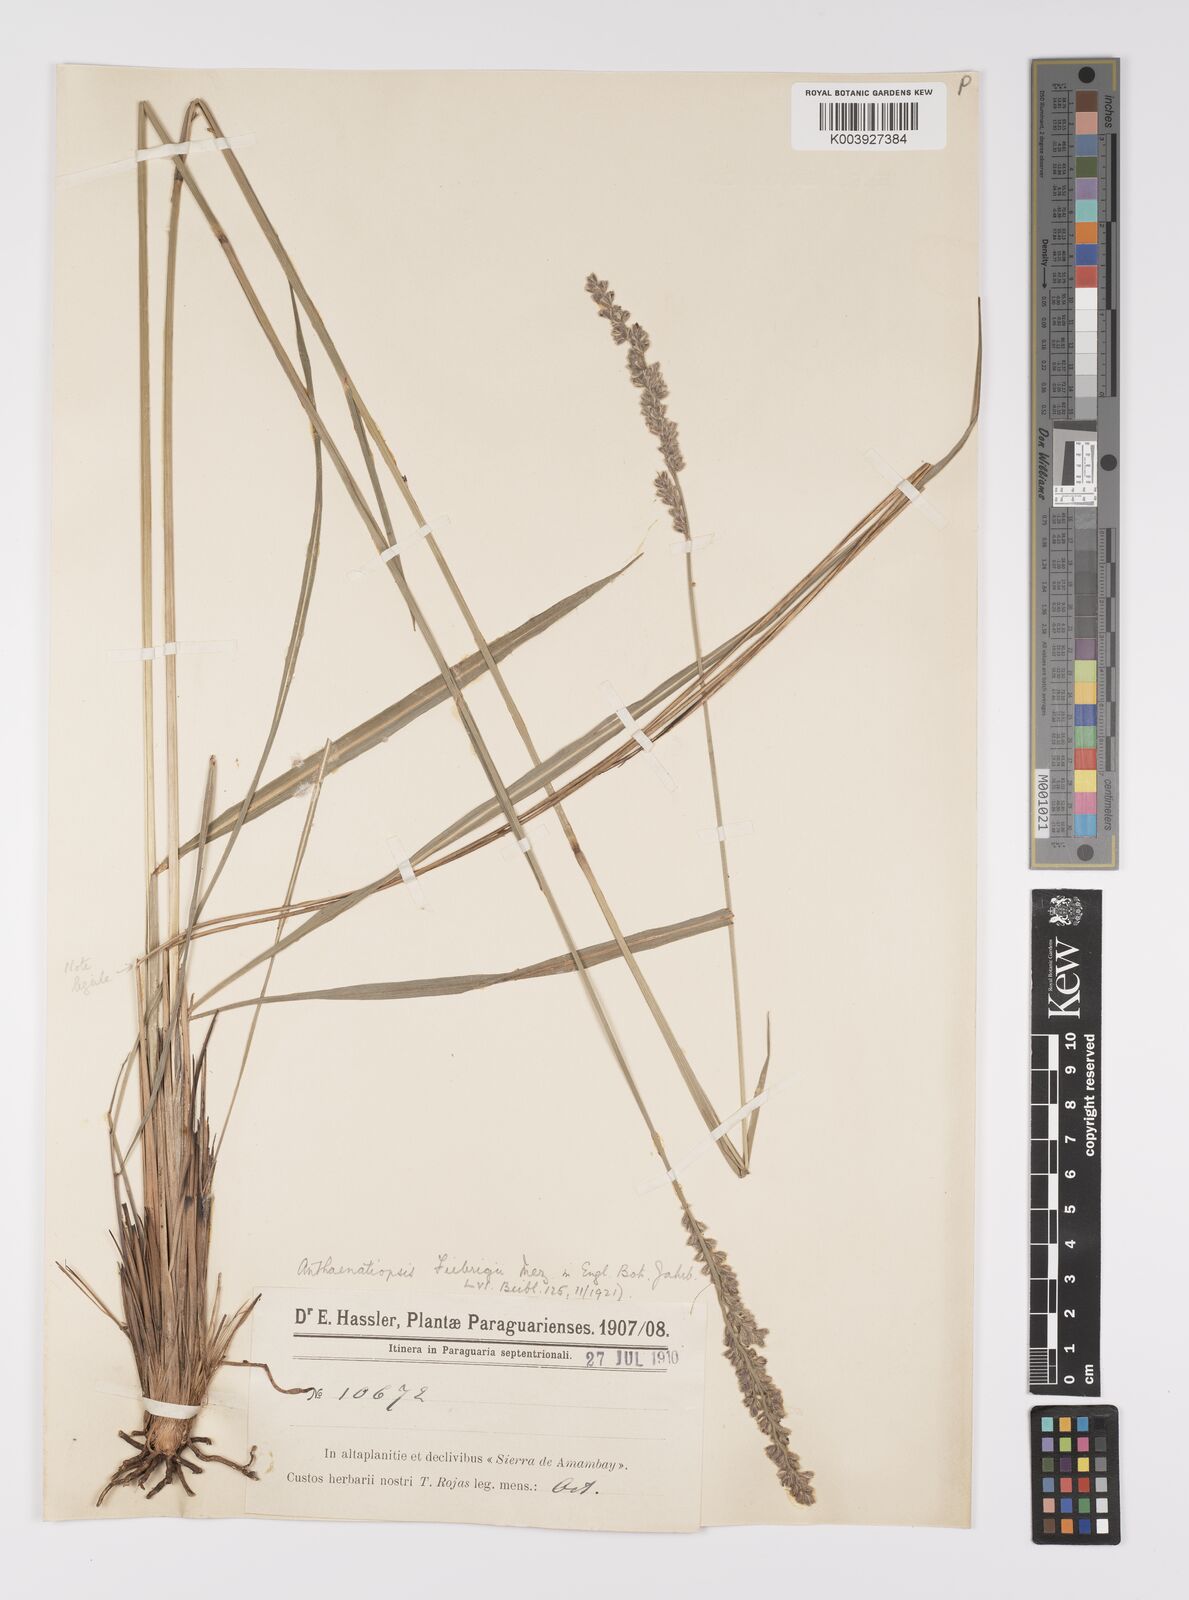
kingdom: Plantae
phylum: Tracheophyta
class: Liliopsida
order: Poales
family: Poaceae
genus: Anthaenantiopsis
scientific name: Anthaenantiopsis perforata
